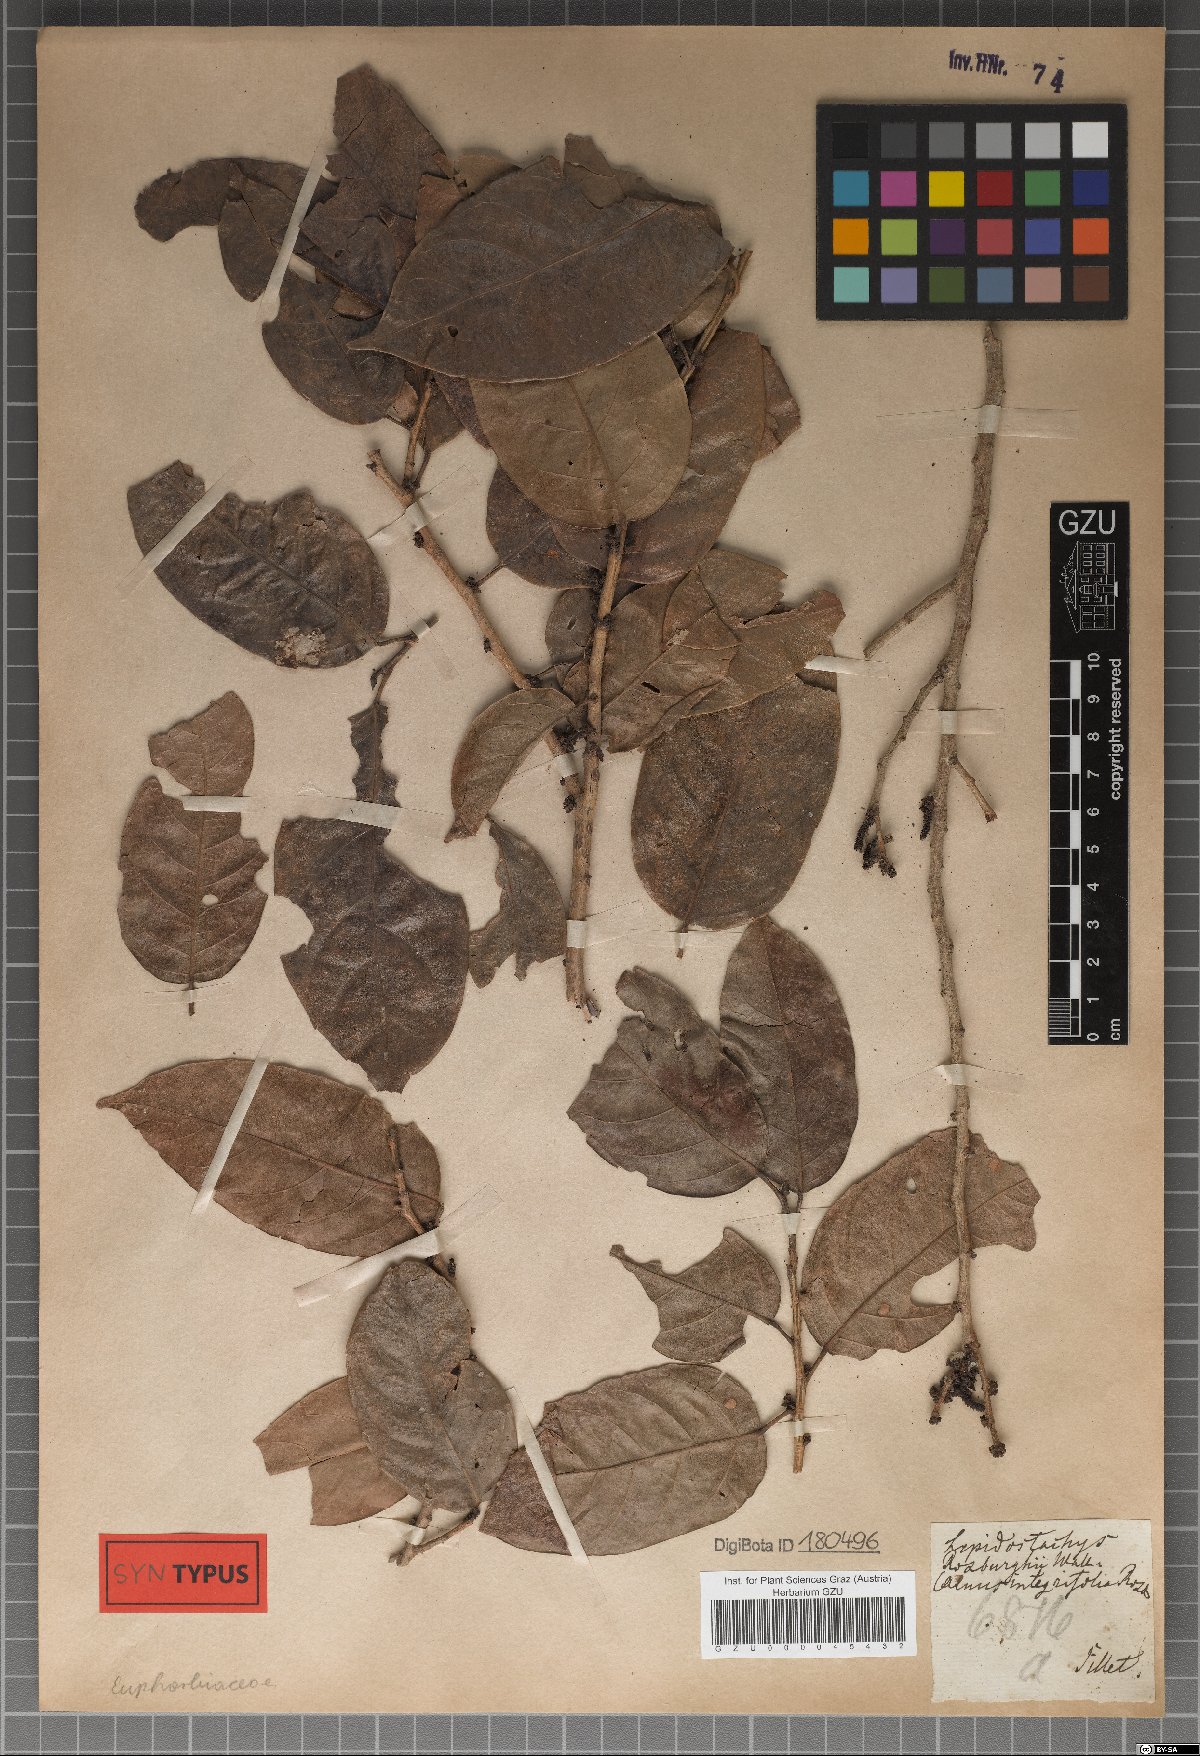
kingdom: Plantae
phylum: Tracheophyta
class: Magnoliopsida
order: Malpighiales
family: Phyllanthaceae
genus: Aporosa
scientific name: Aporosa octandra
